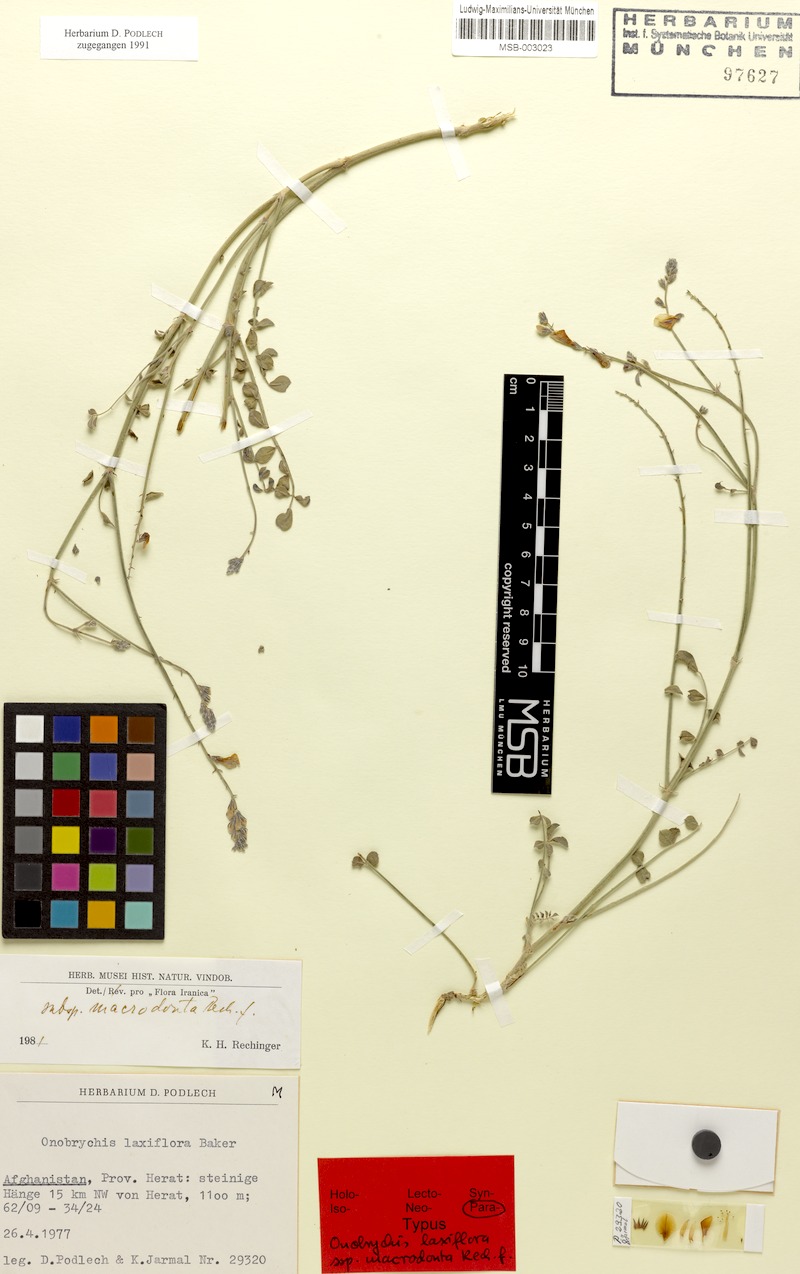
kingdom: Plantae
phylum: Tracheophyta
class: Magnoliopsida
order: Fabales
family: Fabaceae
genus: Onobrychis
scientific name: Onobrychis laxiflora
